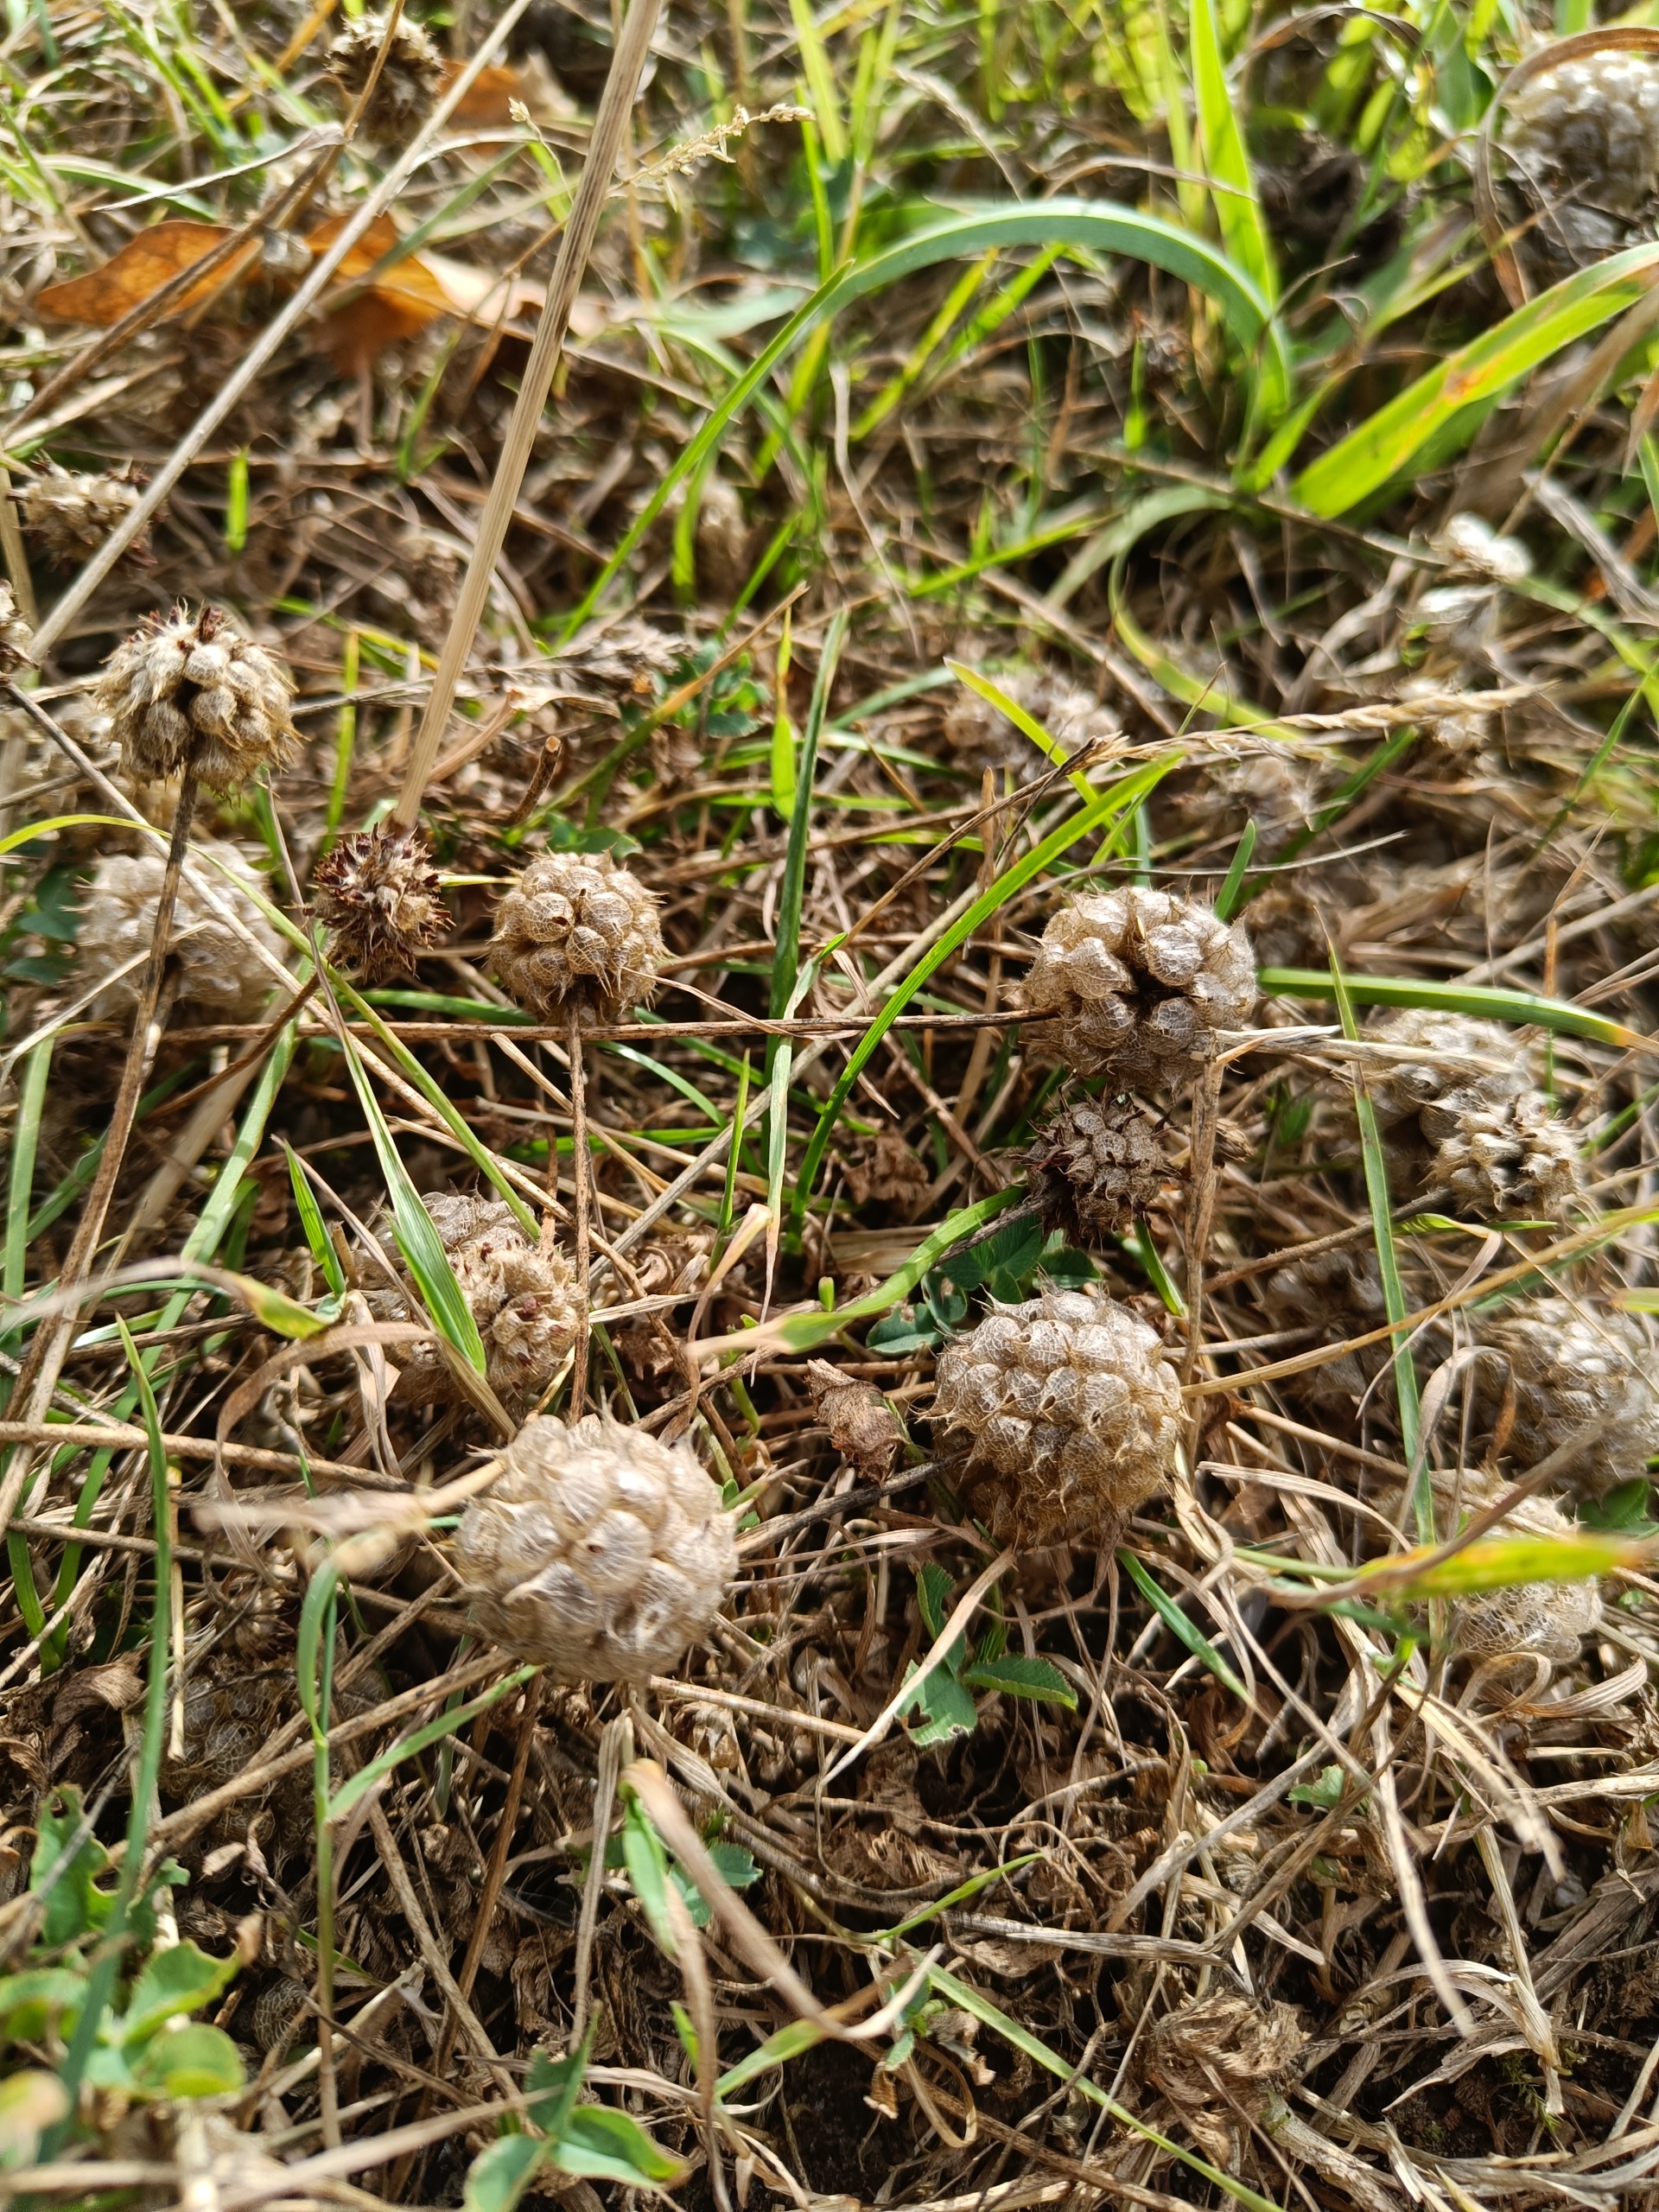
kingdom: Plantae
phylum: Tracheophyta
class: Magnoliopsida
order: Fabales
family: Fabaceae
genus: Trifolium
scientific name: Trifolium fragiferum
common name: Jordbær-kløver
